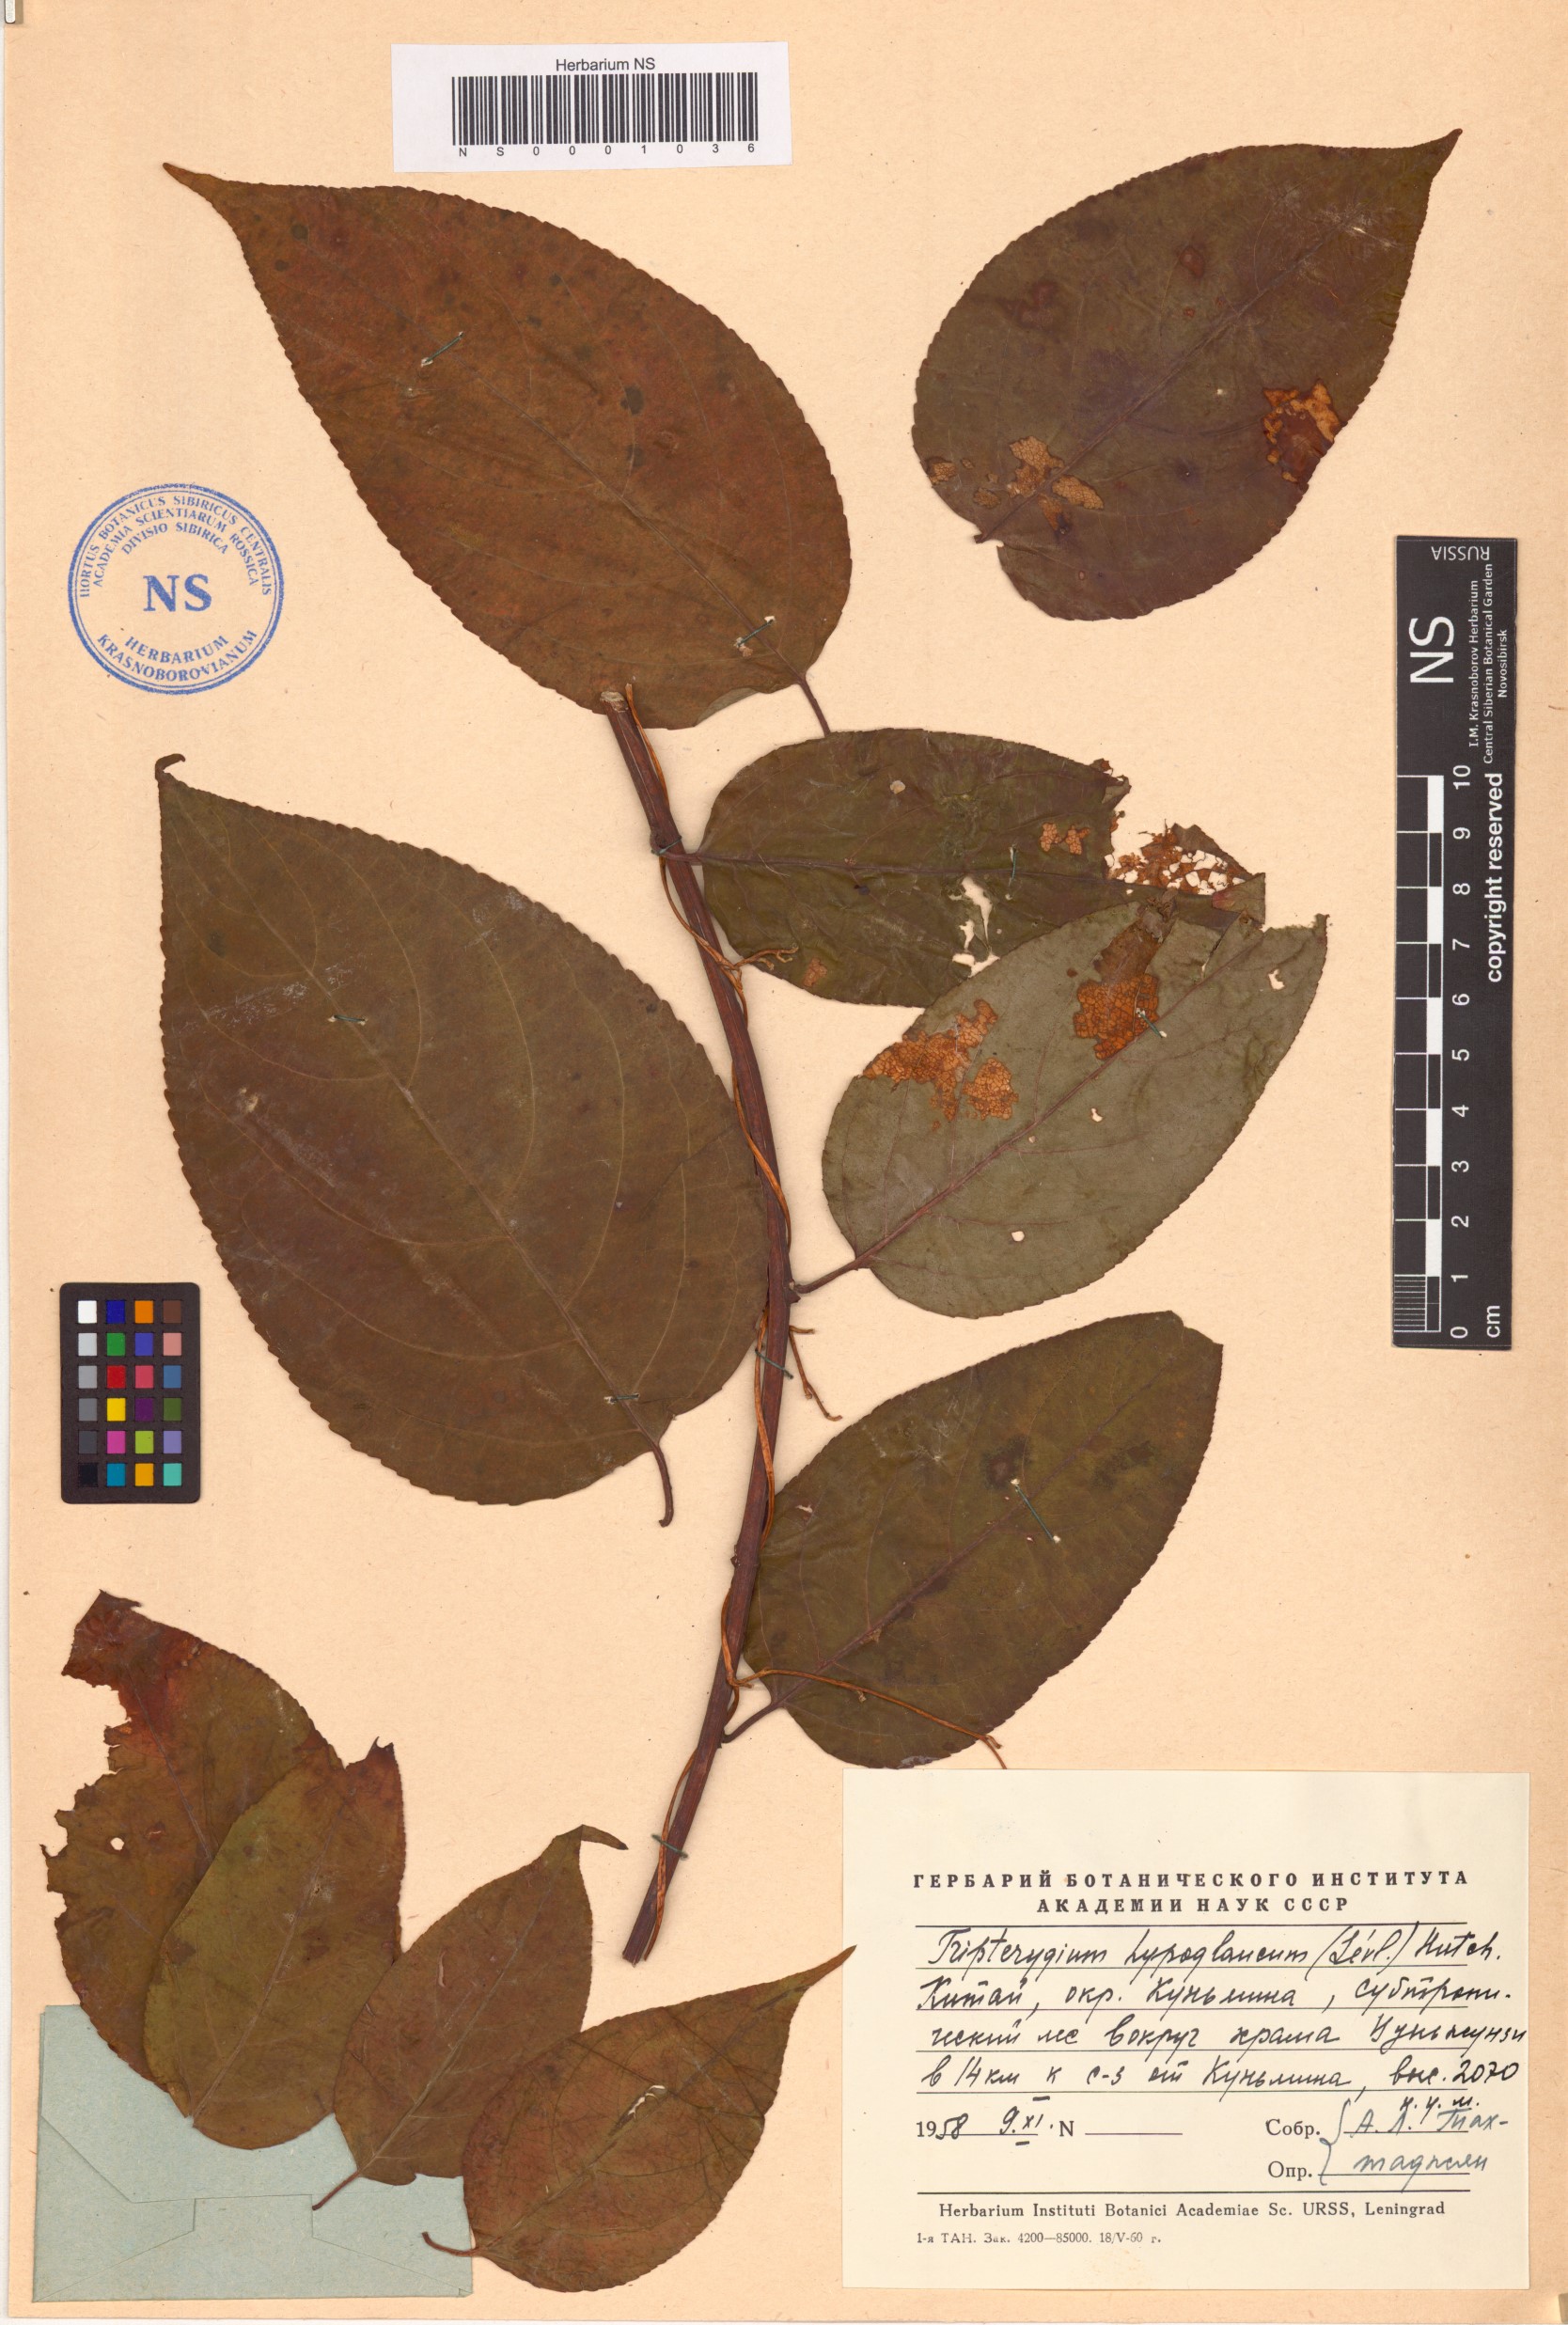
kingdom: Plantae
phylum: Tracheophyta
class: Magnoliopsida
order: Celastrales
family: Celastraceae
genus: Tripterygium
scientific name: Tripterygium wilfordii
